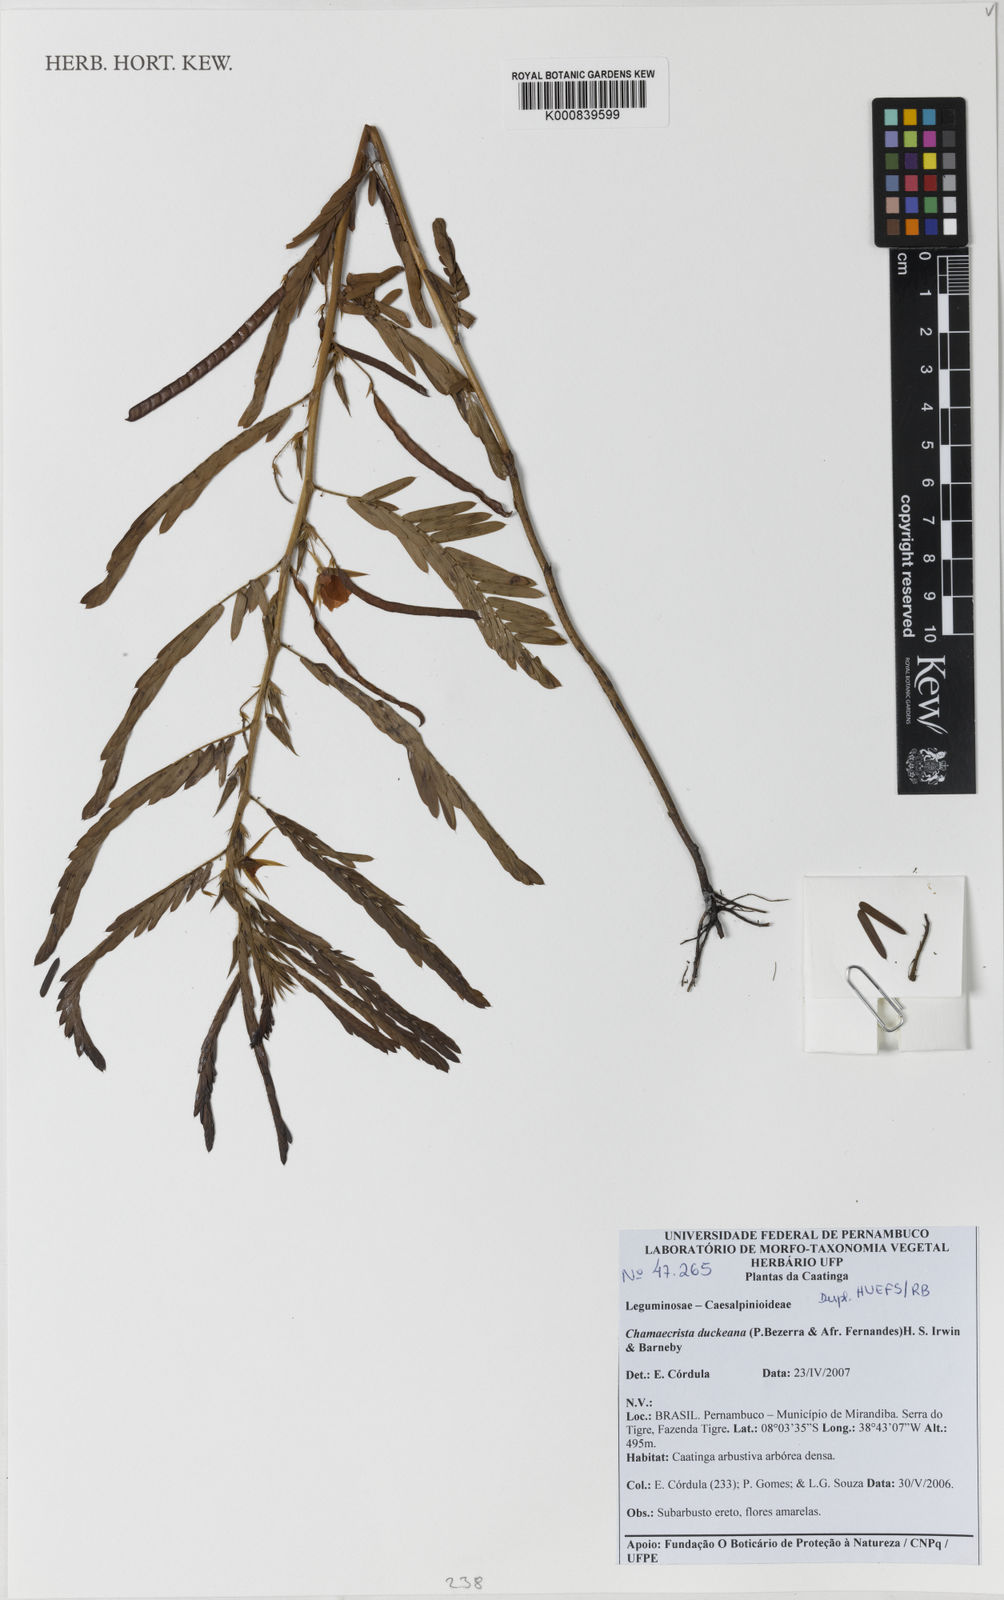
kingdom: Plantae
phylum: Tracheophyta
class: Magnoliopsida
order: Fabales
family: Fabaceae
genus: Chamaecrista
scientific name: Chamaecrista duckeana
